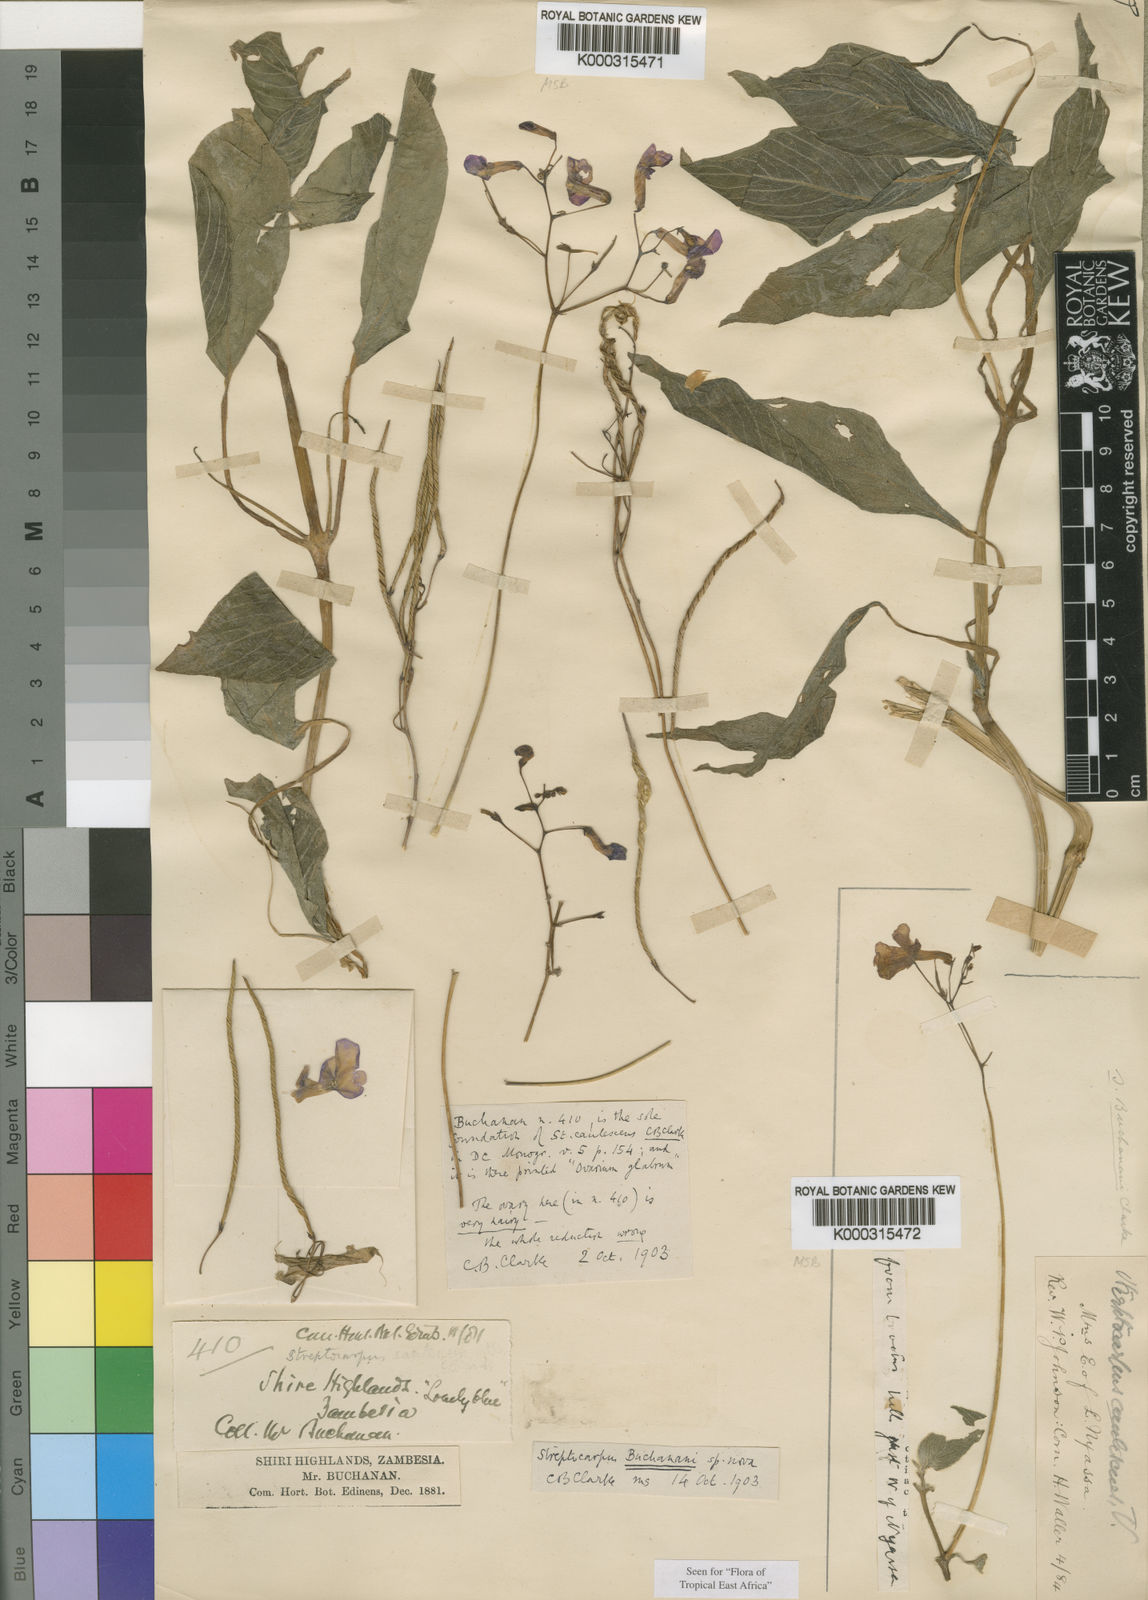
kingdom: Plantae
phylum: Tracheophyta
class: Magnoliopsida
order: Lamiales
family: Gesneriaceae
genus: Streptocarpus
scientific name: Streptocarpus buchananii
